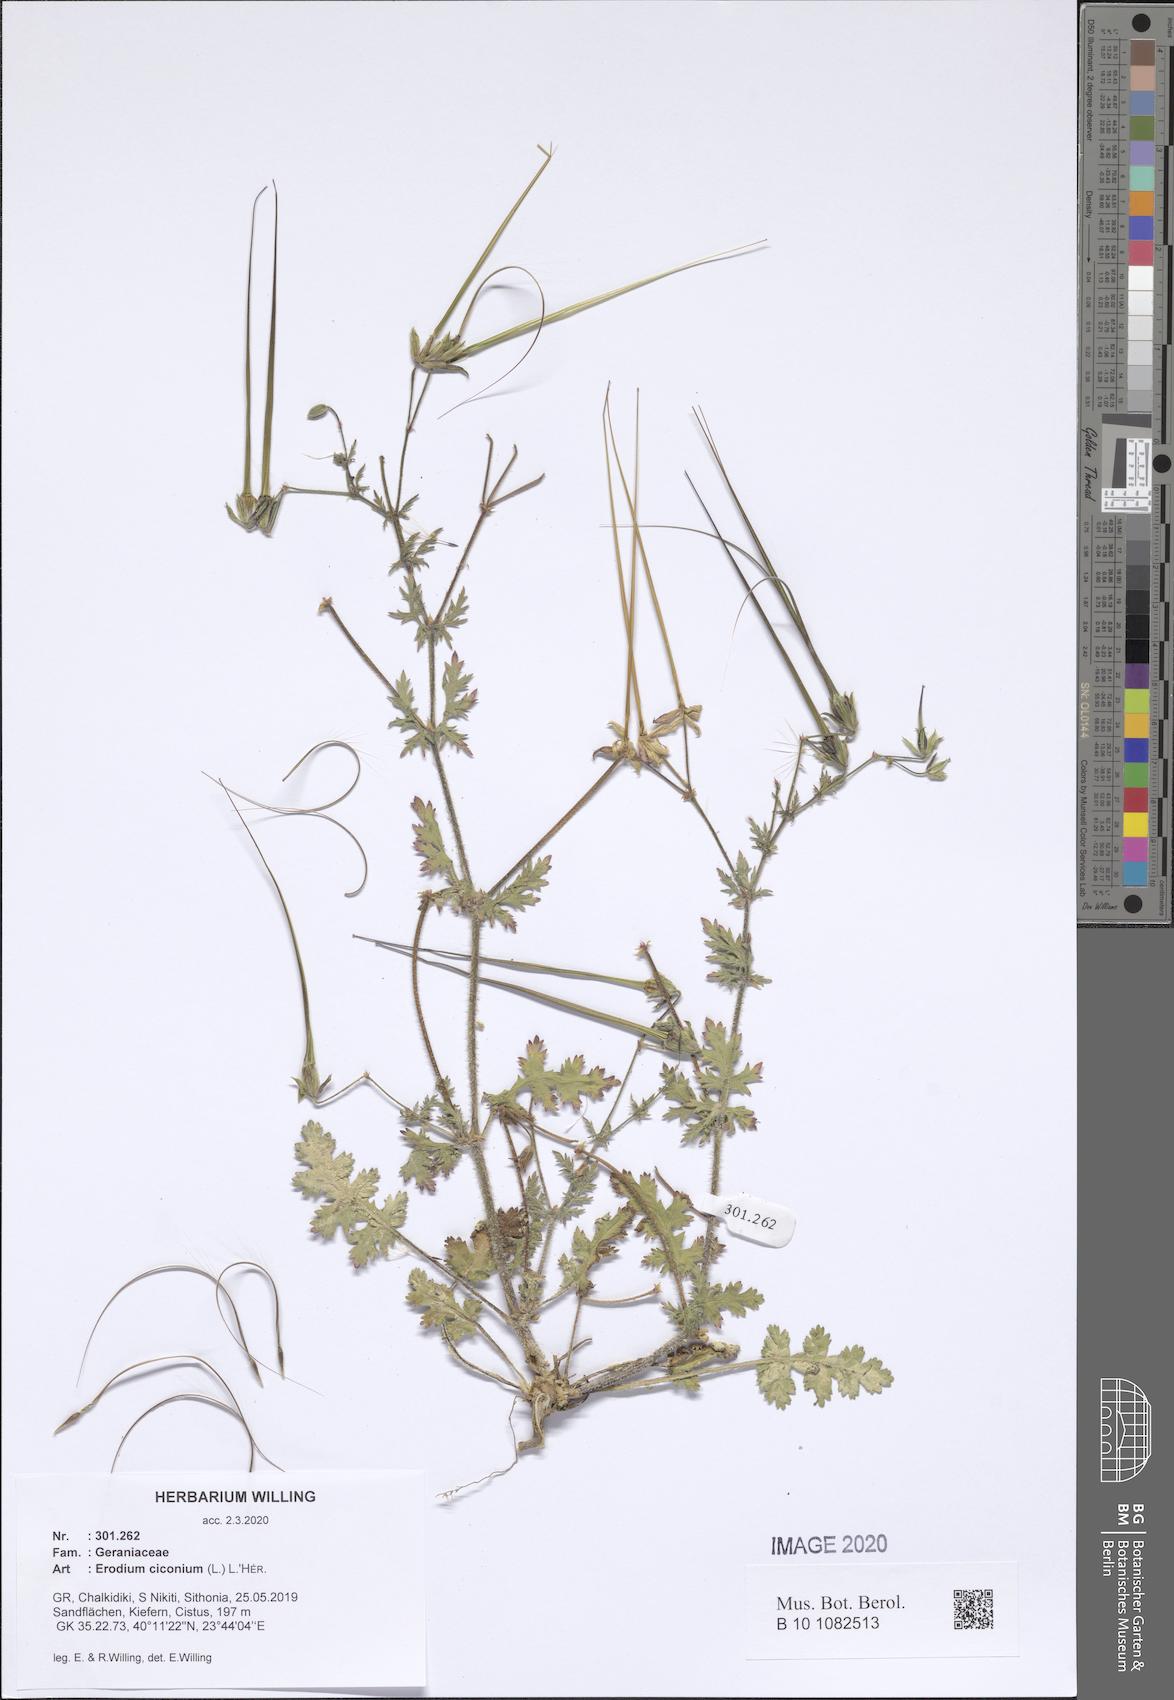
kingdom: Plantae
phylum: Tracheophyta
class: Magnoliopsida
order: Geraniales
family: Geraniaceae
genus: Erodium
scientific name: Erodium ciconium
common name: Common stork's bill
